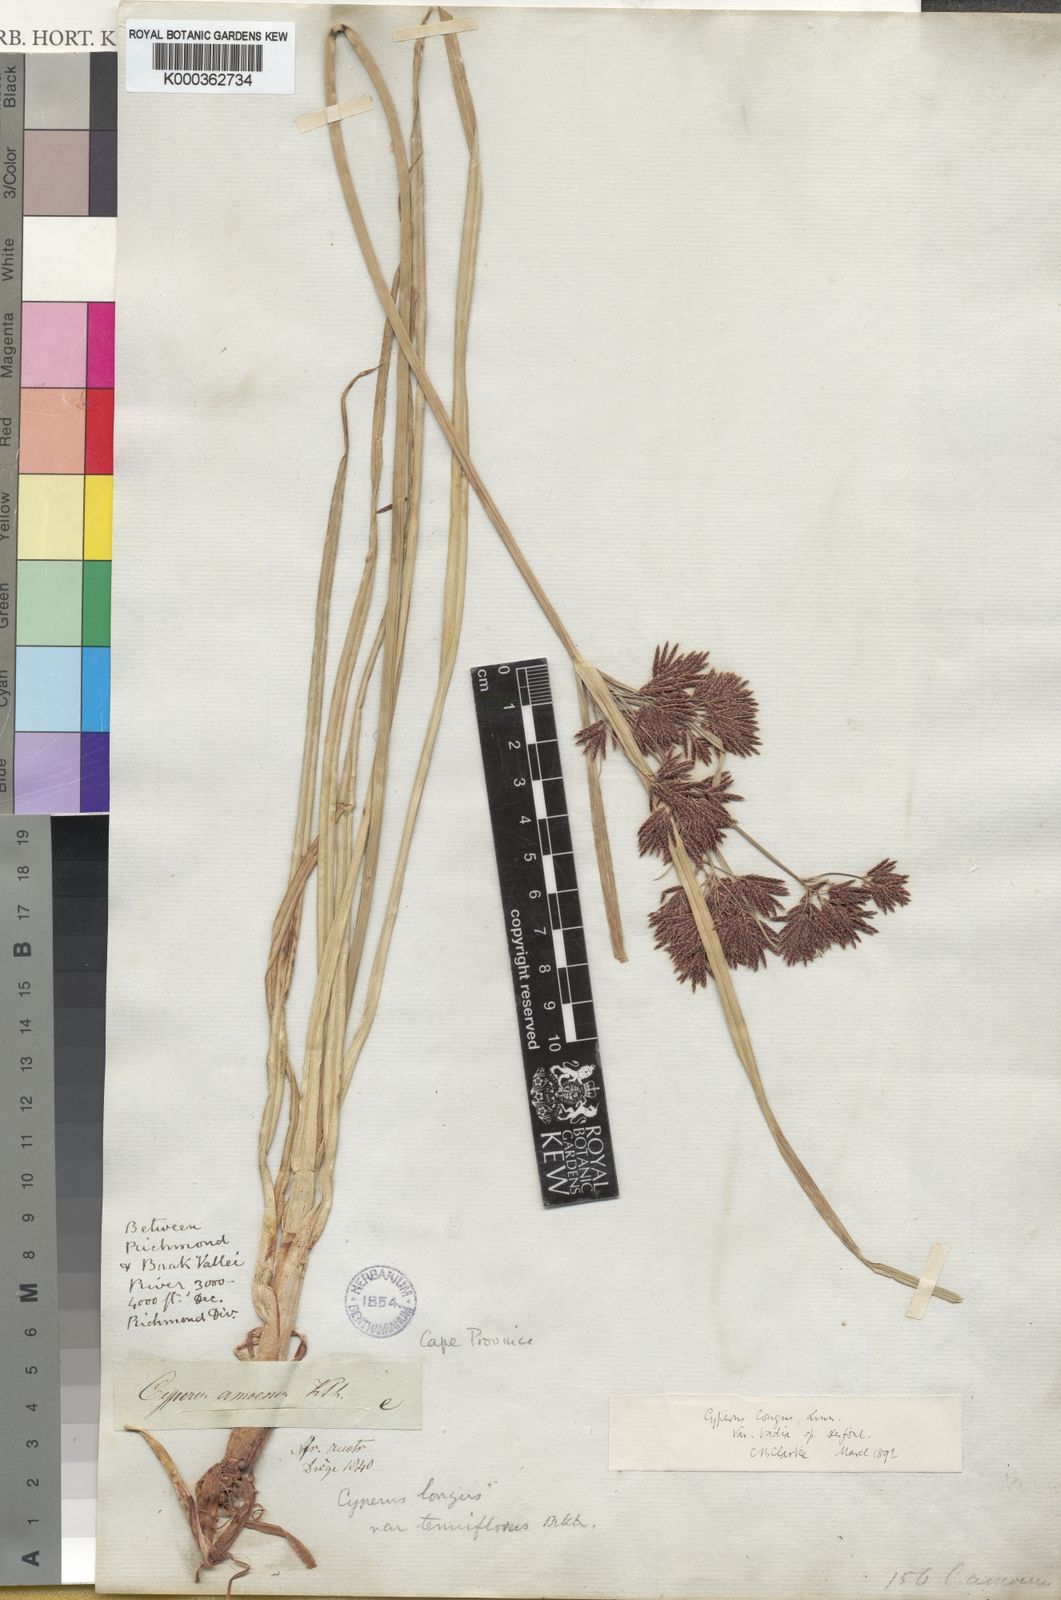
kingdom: Plantae
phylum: Tracheophyta
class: Liliopsida
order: Poales
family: Cyperaceae
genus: Cyperus
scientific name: Cyperus longus
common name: Galingale
